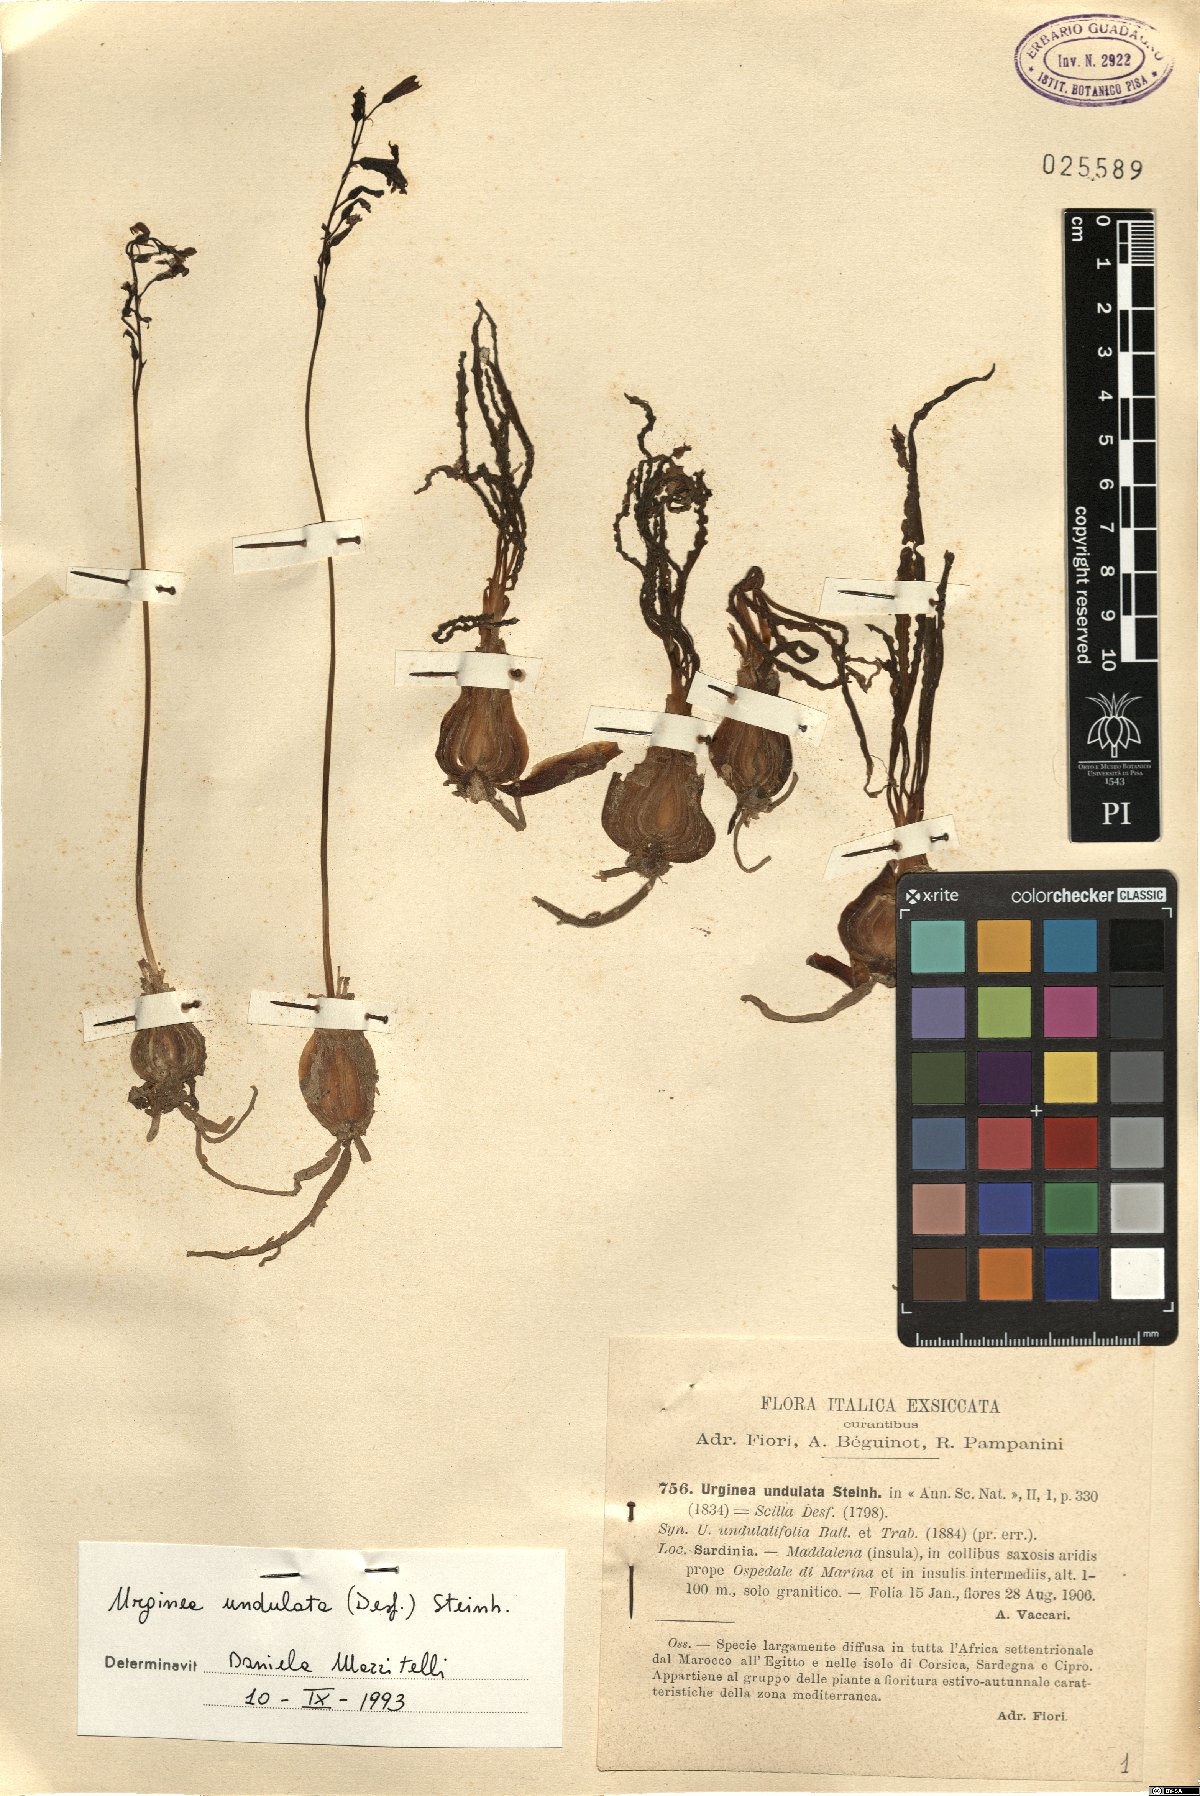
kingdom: Plantae
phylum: Tracheophyta
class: Liliopsida
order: Asparagales
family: Asparagaceae
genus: Drimia
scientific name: Drimia purpurascens
